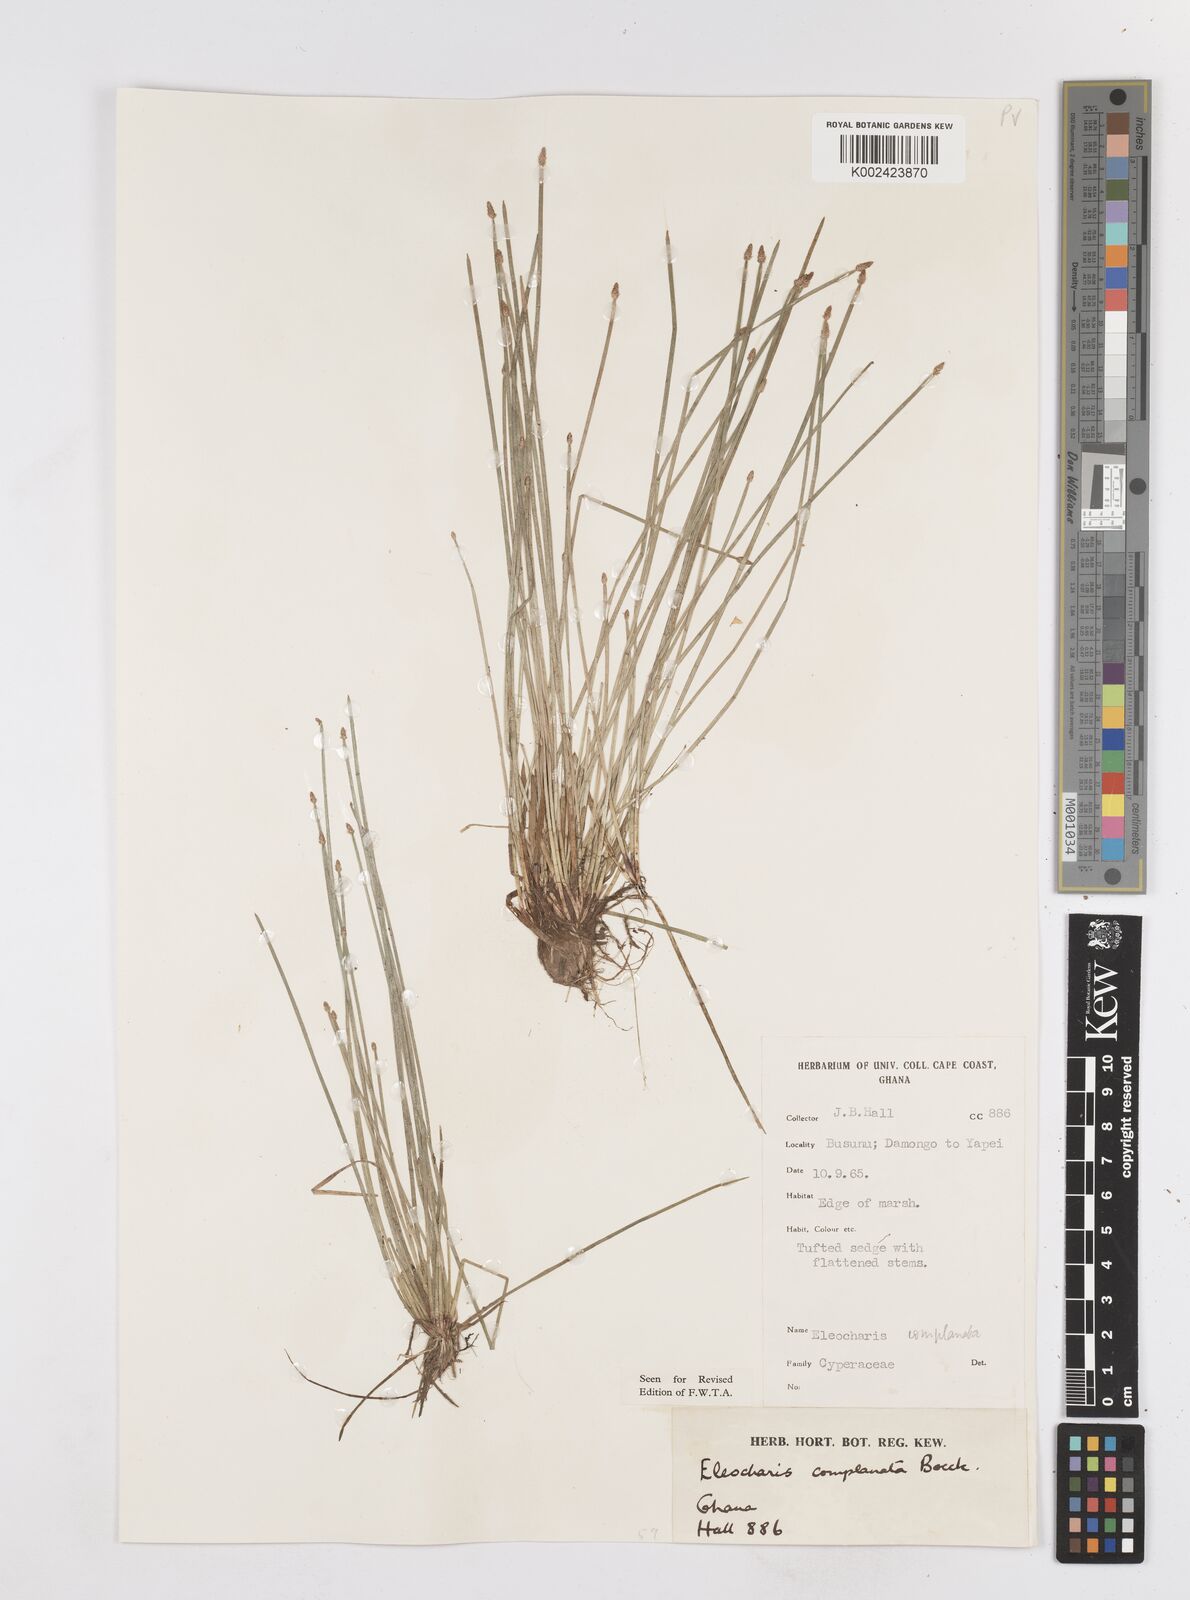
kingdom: Plantae
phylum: Tracheophyta
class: Liliopsida
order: Poales
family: Cyperaceae
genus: Eleocharis
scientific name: Eleocharis complanata
